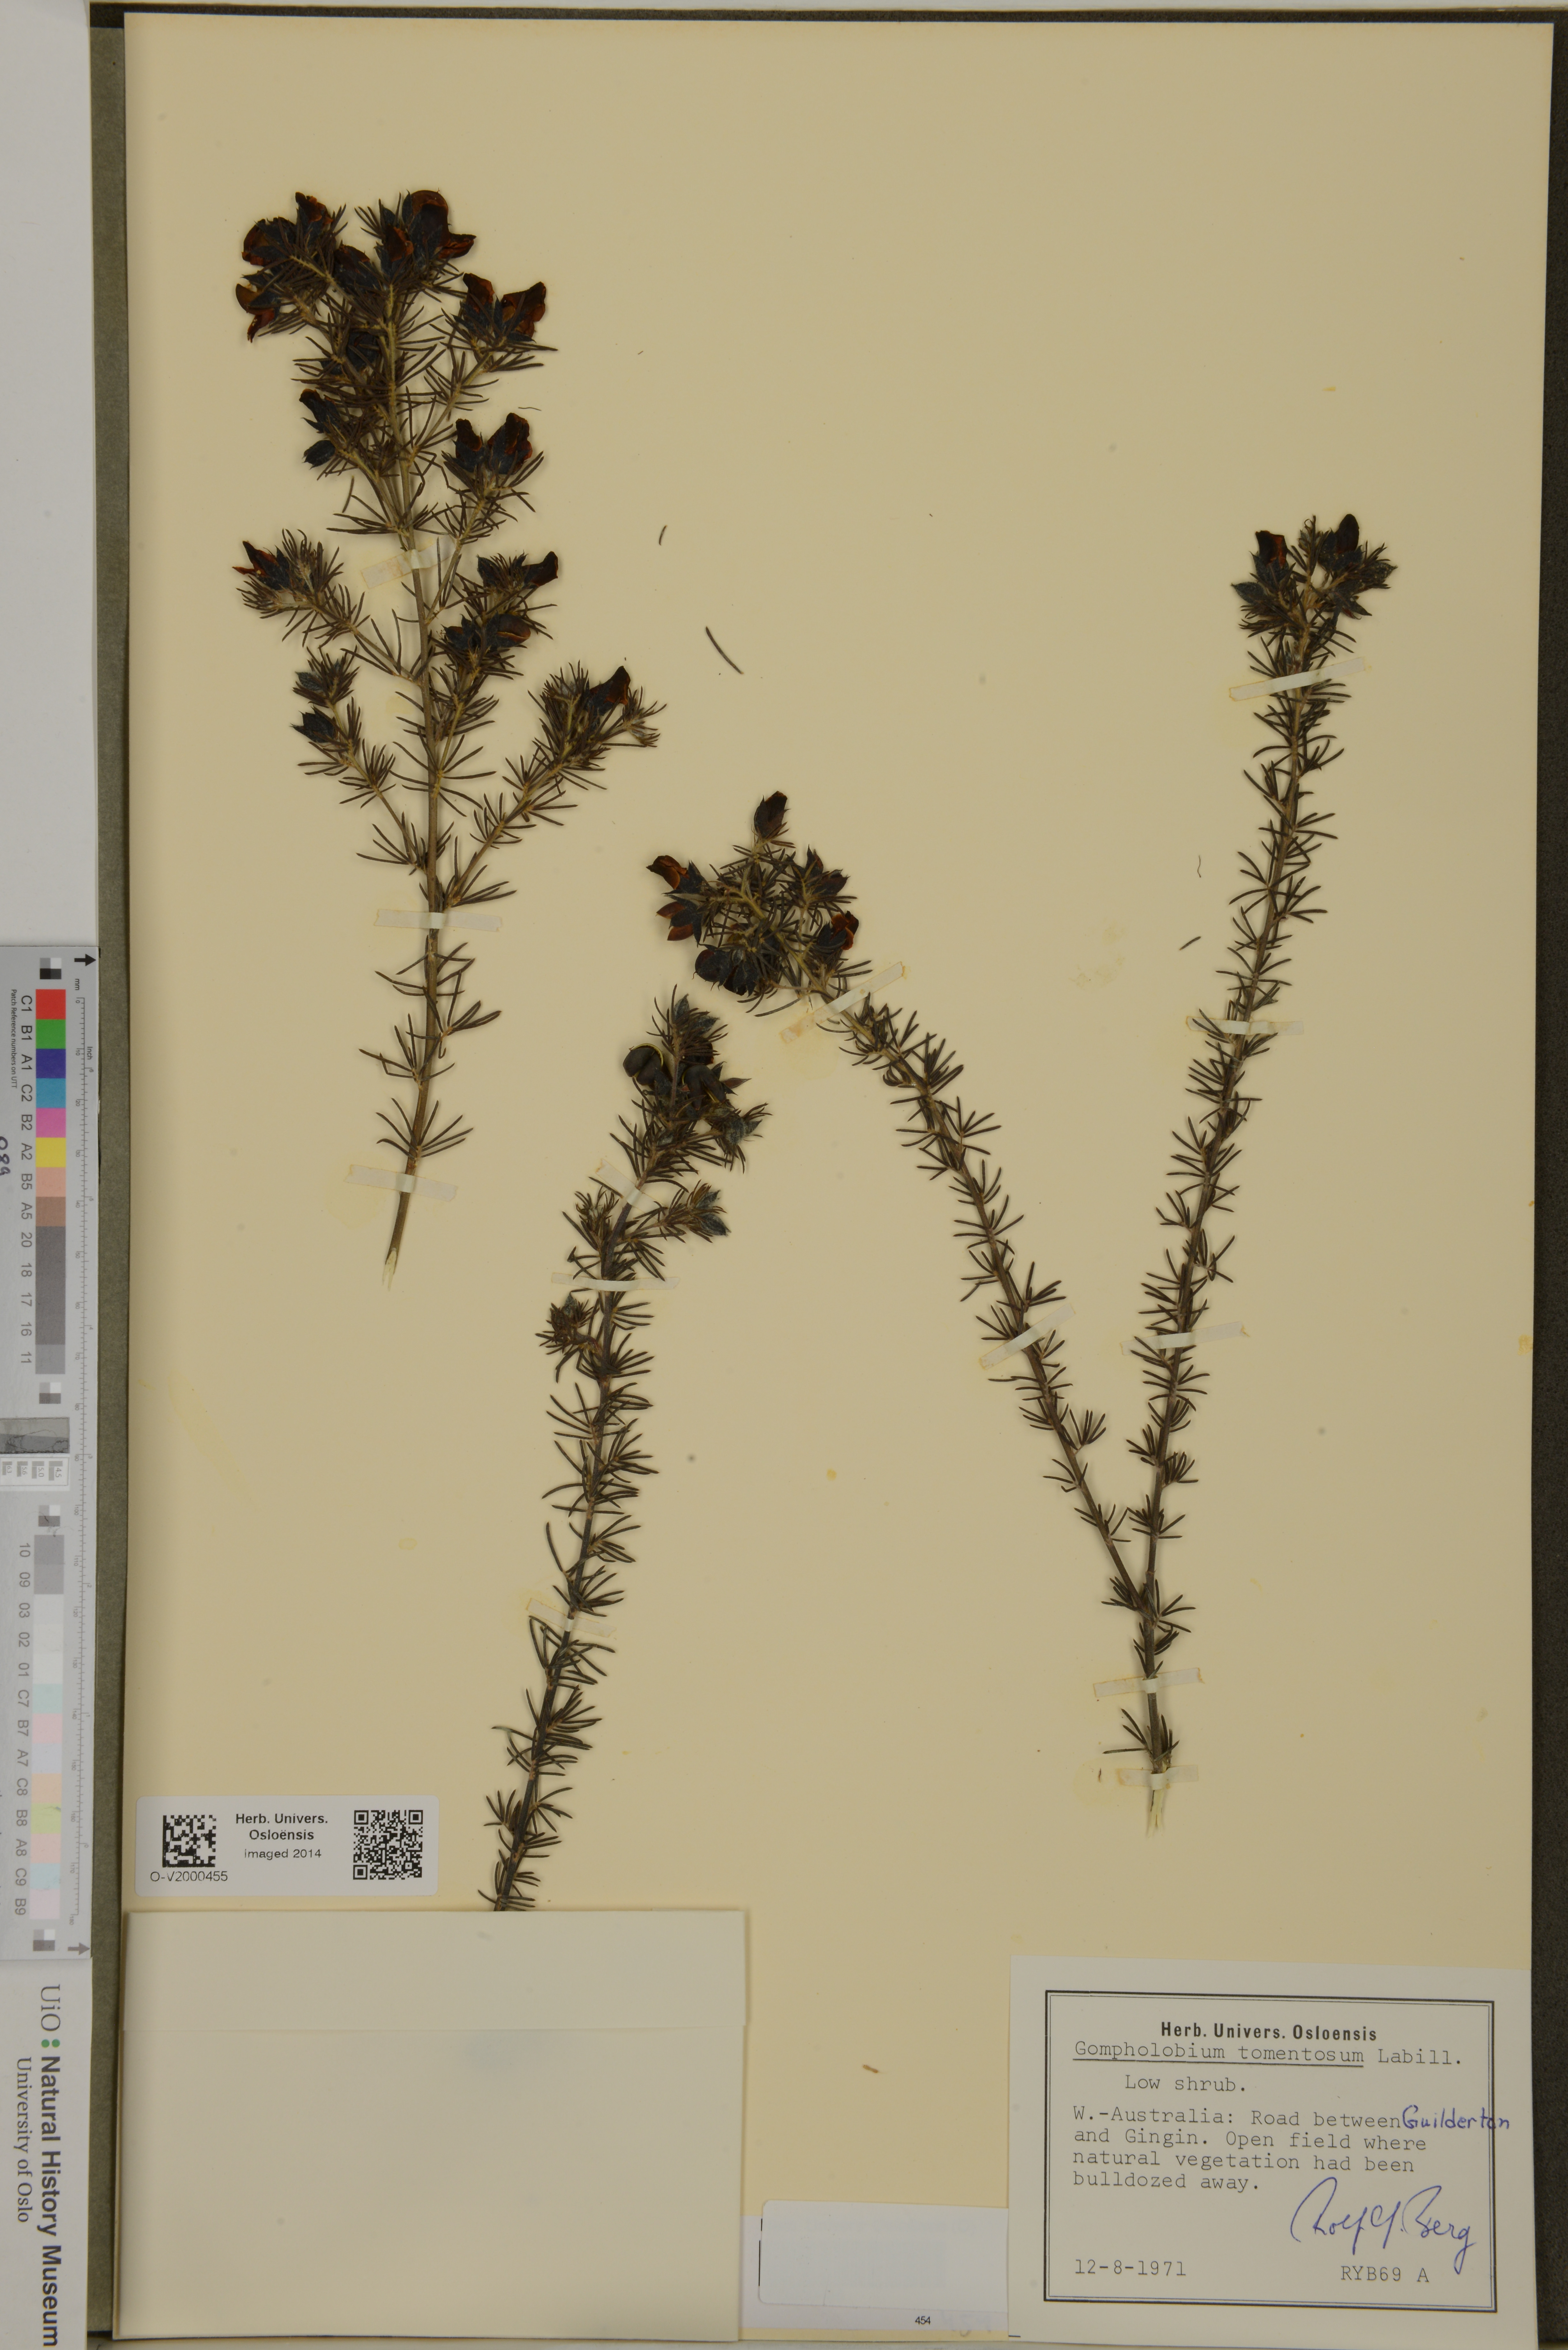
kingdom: Plantae
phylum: Tracheophyta
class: Magnoliopsida
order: Fabales
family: Fabaceae
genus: Gompholobium
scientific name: Gompholobium tomentosum
